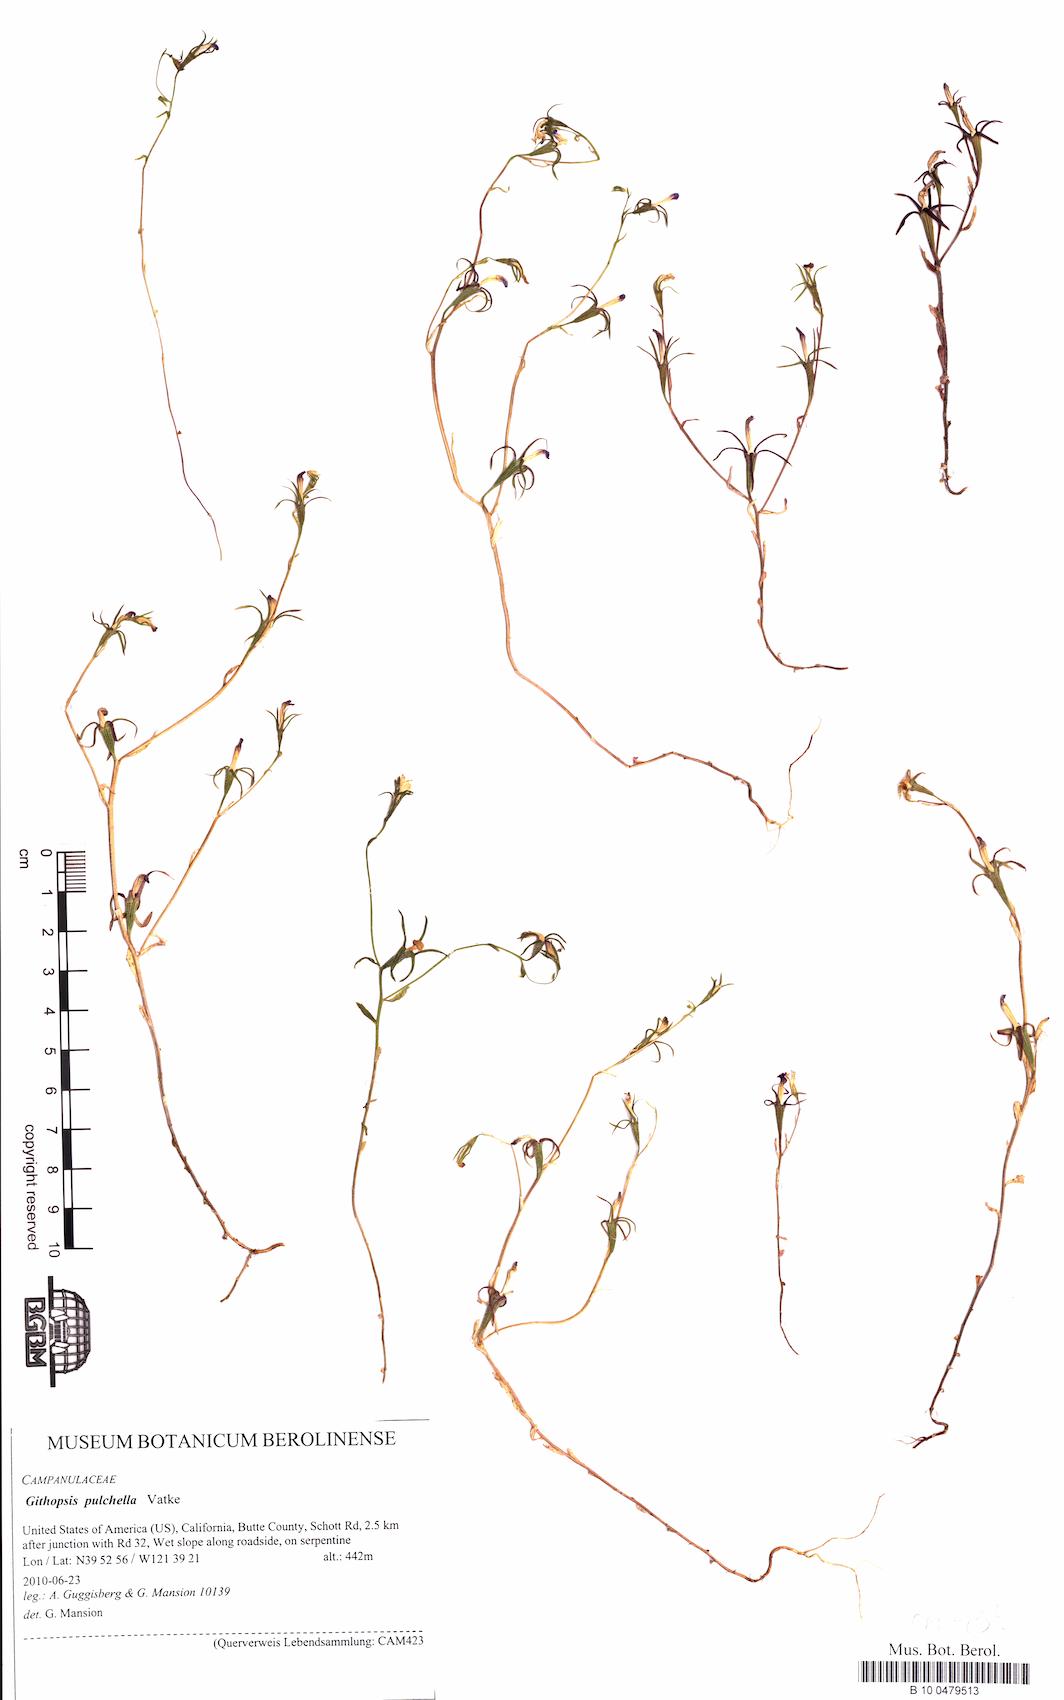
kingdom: Plantae
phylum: Tracheophyta
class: Magnoliopsida
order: Asterales
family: Campanulaceae
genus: Githopsis
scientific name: Githopsis pulchella
